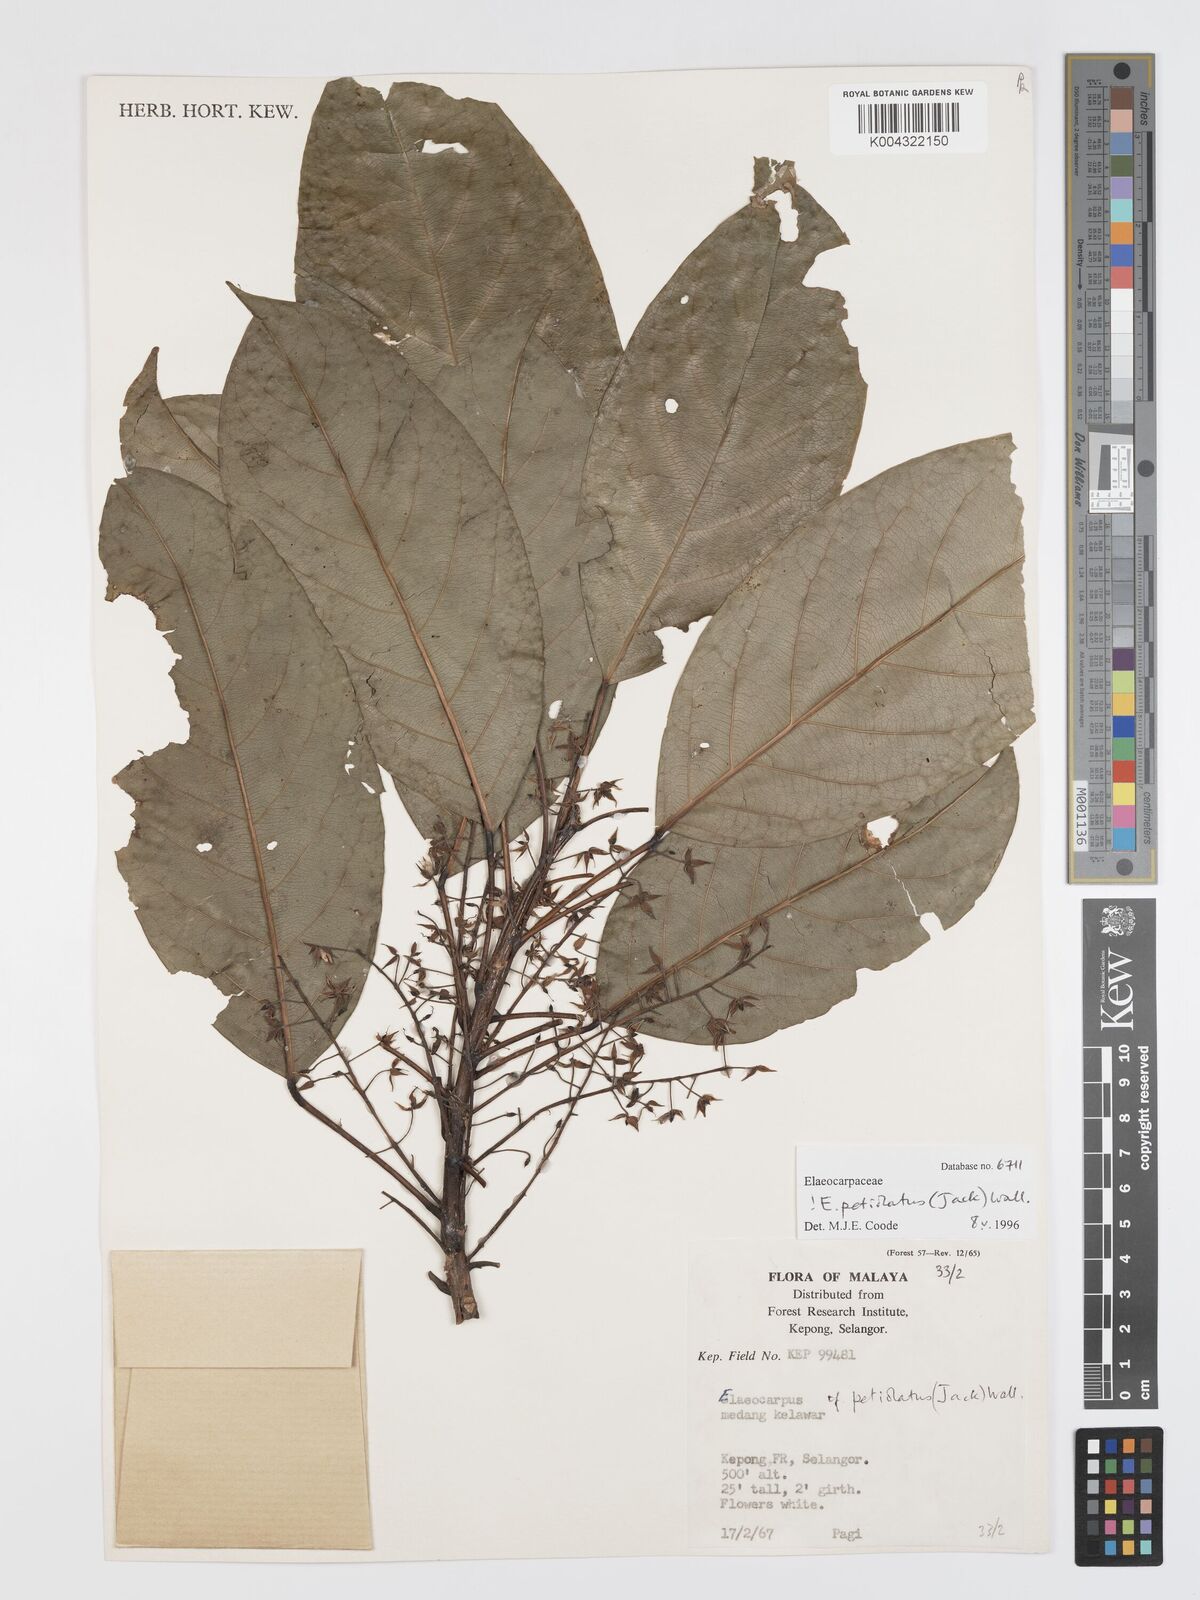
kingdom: Plantae
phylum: Tracheophyta
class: Magnoliopsida
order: Oxalidales
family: Elaeocarpaceae
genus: Elaeocarpus
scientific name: Elaeocarpus
